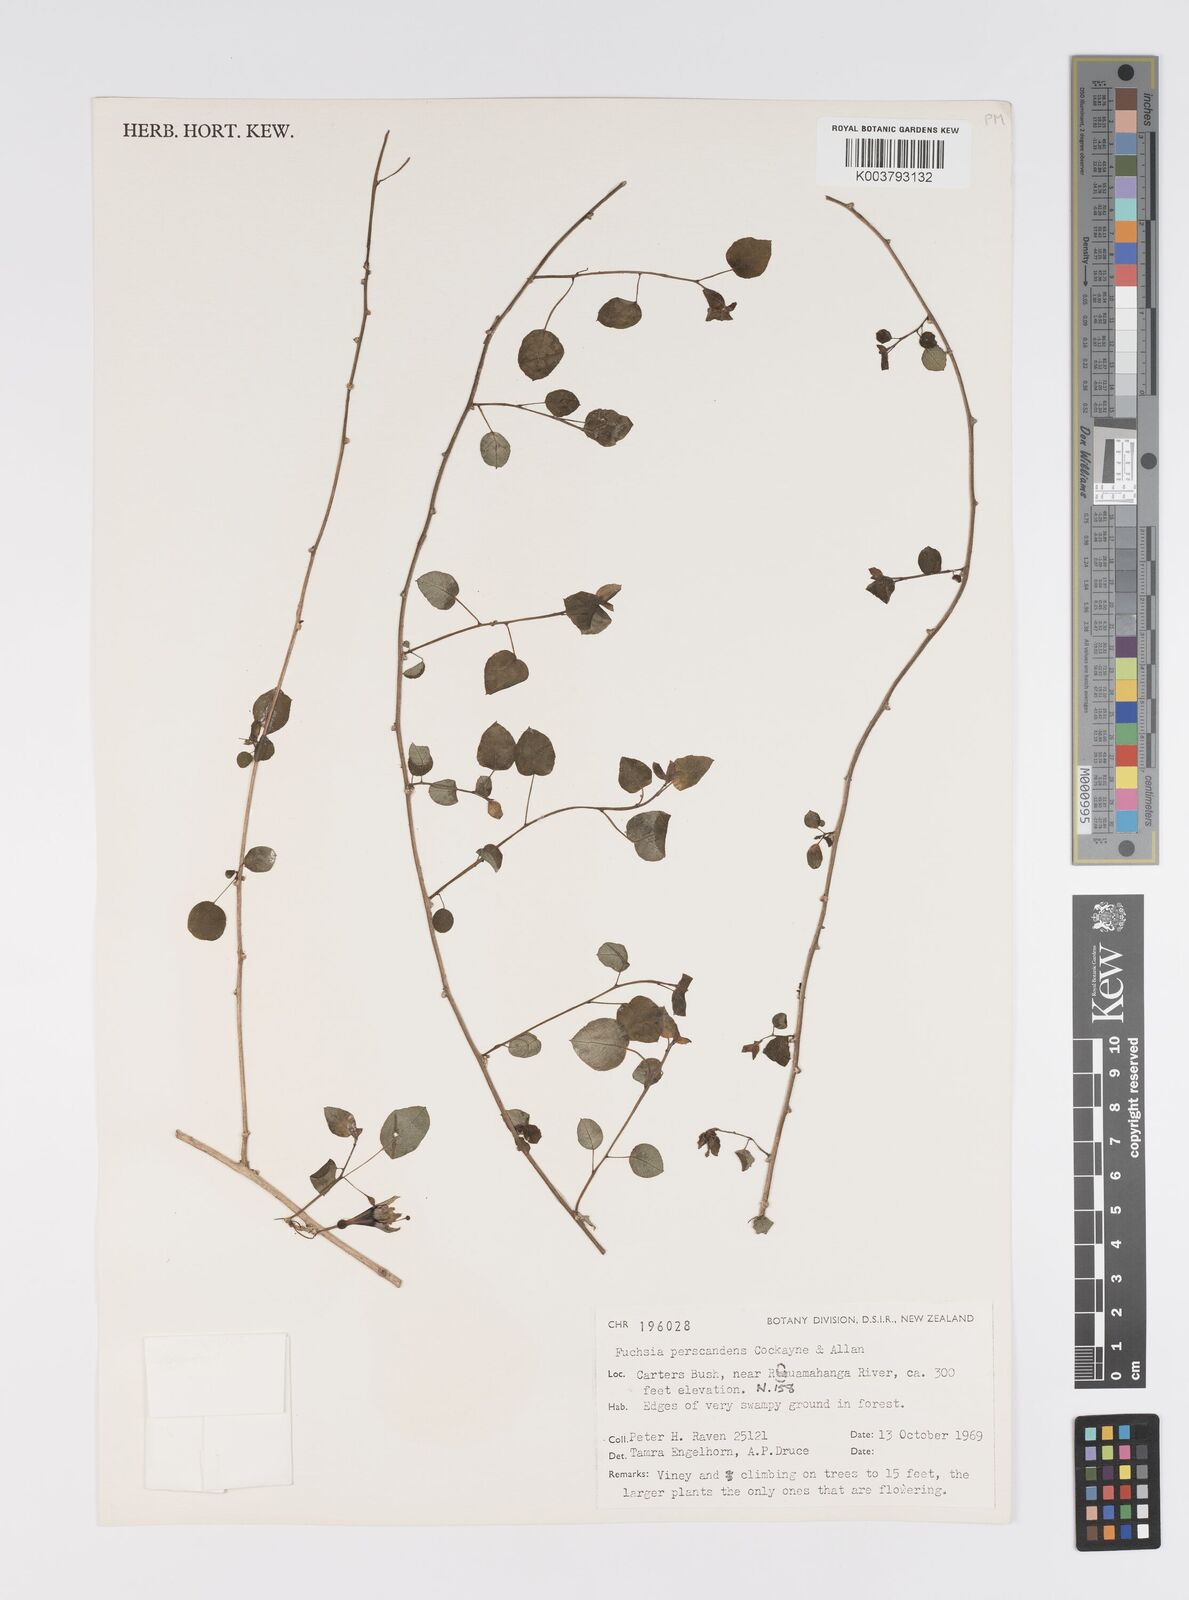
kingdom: Plantae
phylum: Tracheophyta
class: Magnoliopsida
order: Myrtales
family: Onagraceae
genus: Fuchsia
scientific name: Fuchsia perscandens
